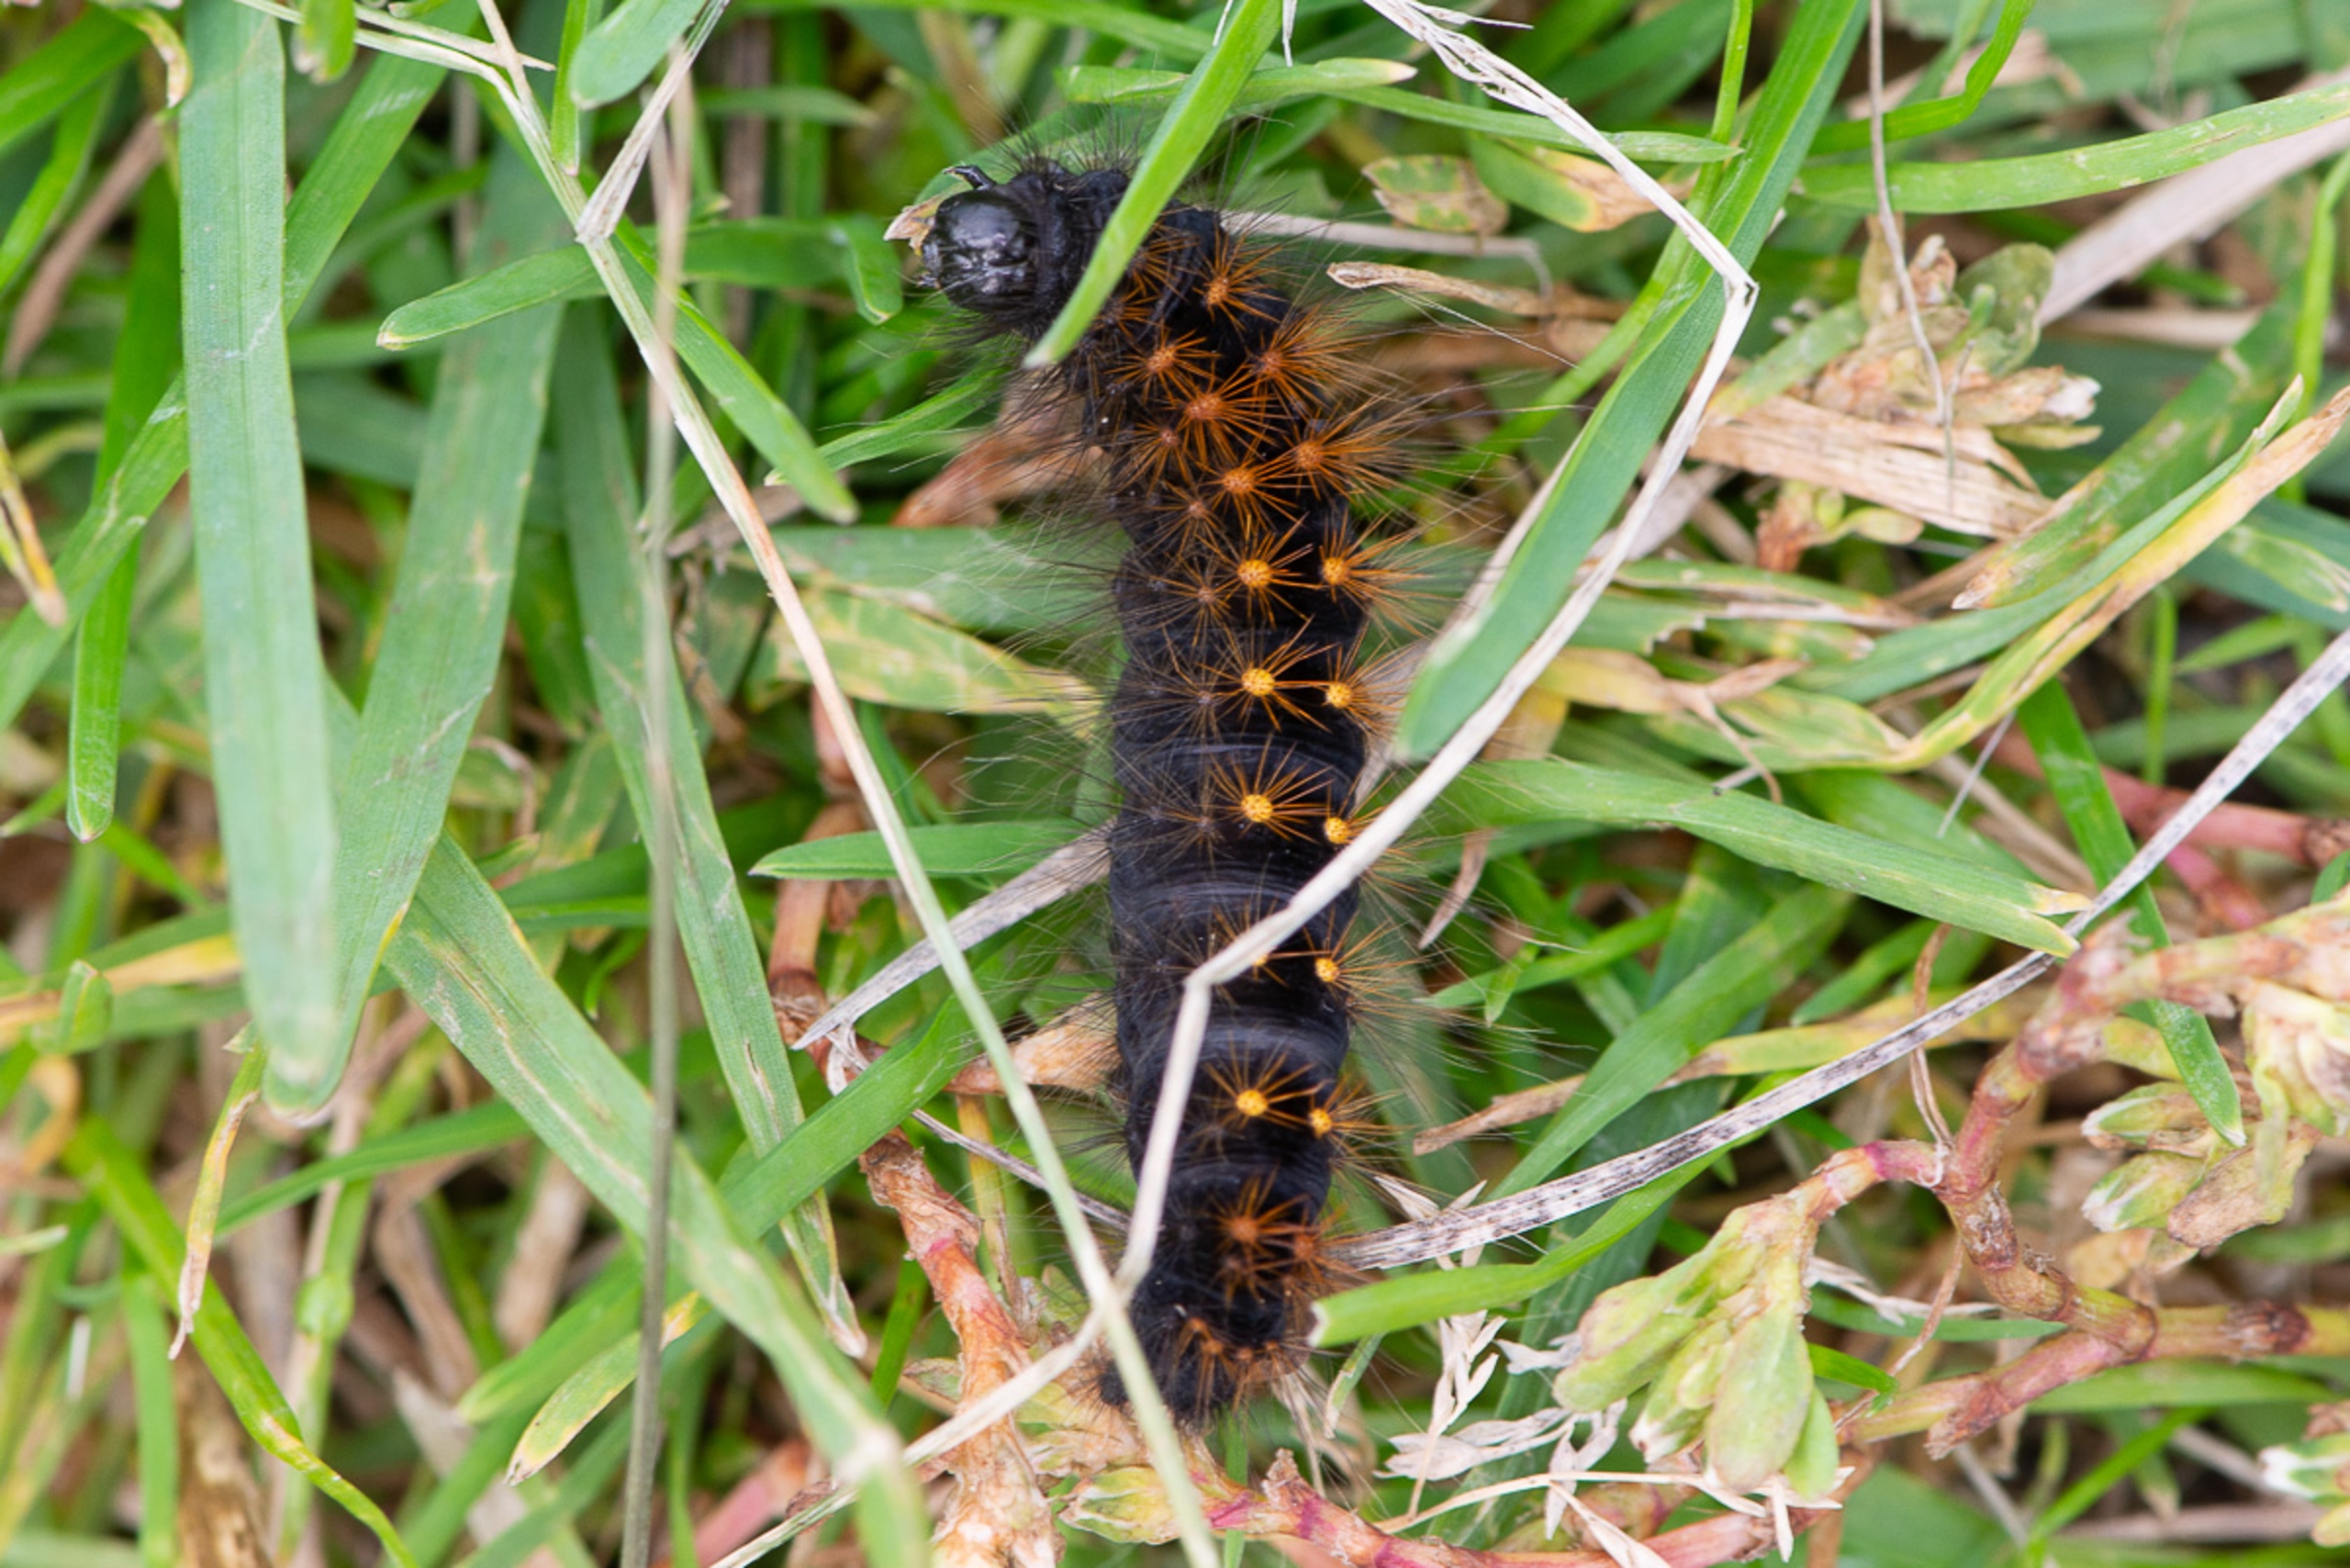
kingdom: Animalia
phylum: Arthropoda
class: Insecta
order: Lepidoptera
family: Noctuidae
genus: Acronicta
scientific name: Acronicta auricoma
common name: Guldlok-pelsugle
